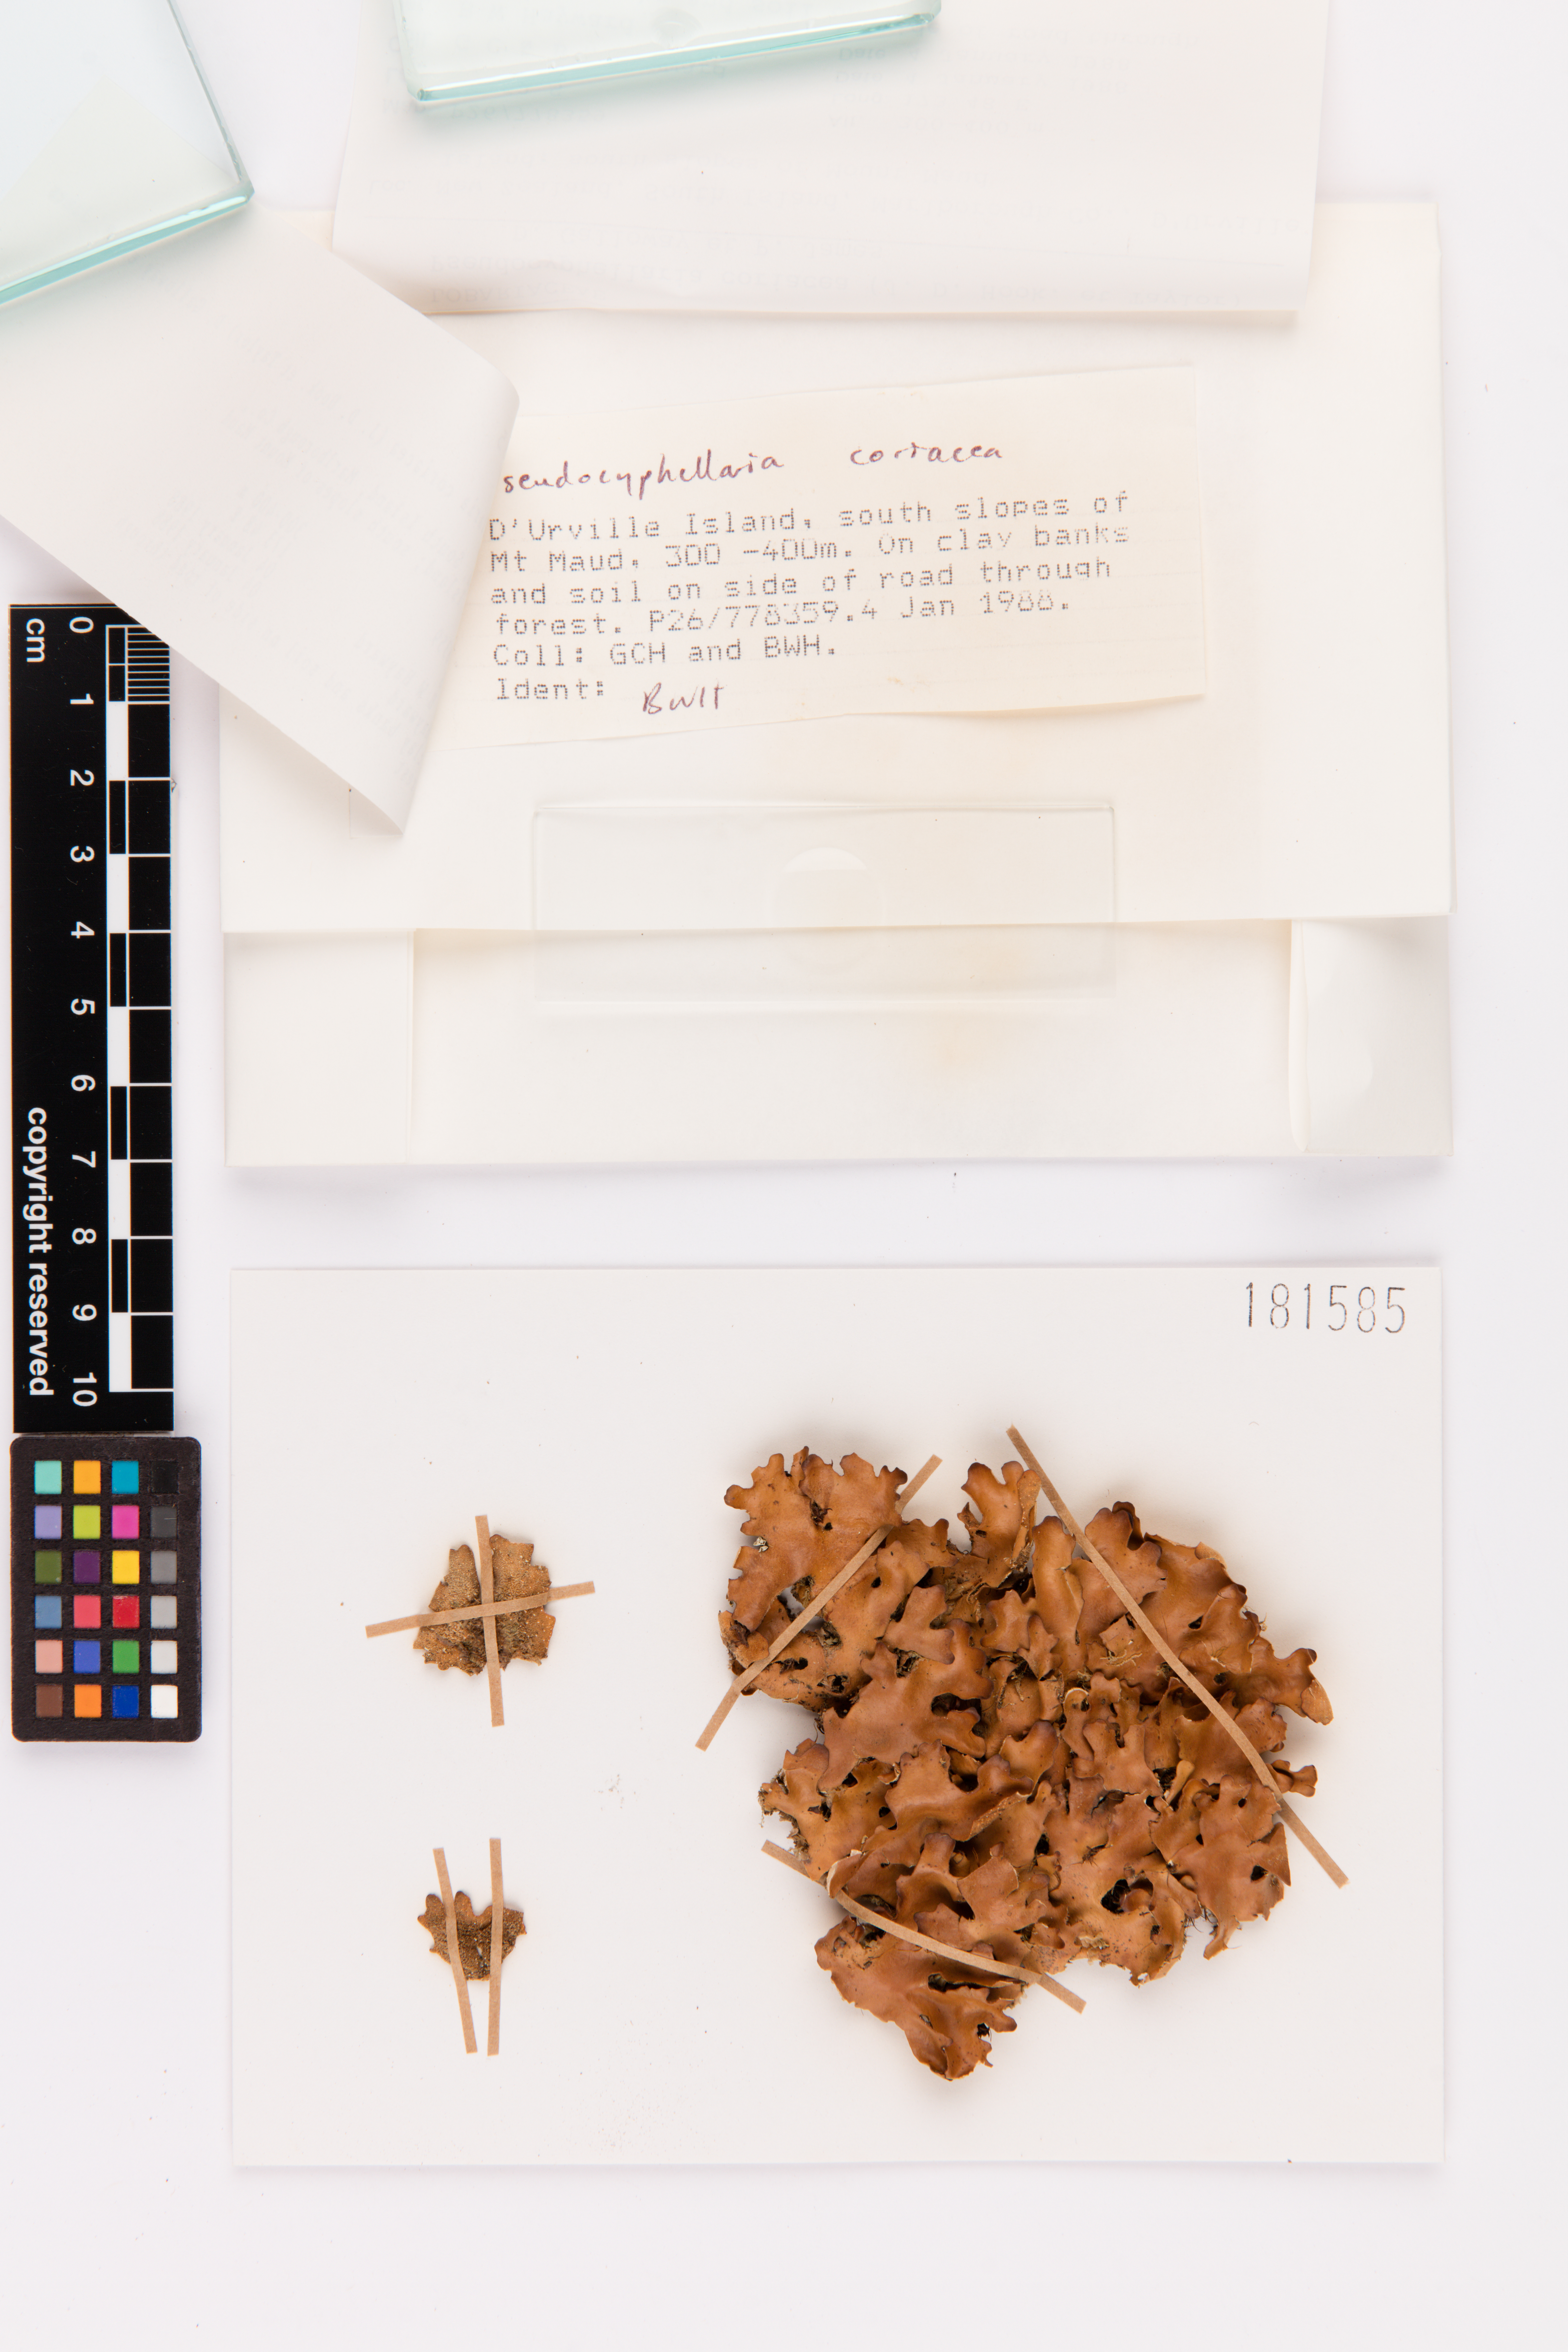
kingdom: Fungi
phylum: Ascomycota
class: Lecanoromycetes
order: Peltigerales
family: Lobariaceae
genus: Pseudocyphellaria
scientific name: Pseudocyphellaria coriacea
